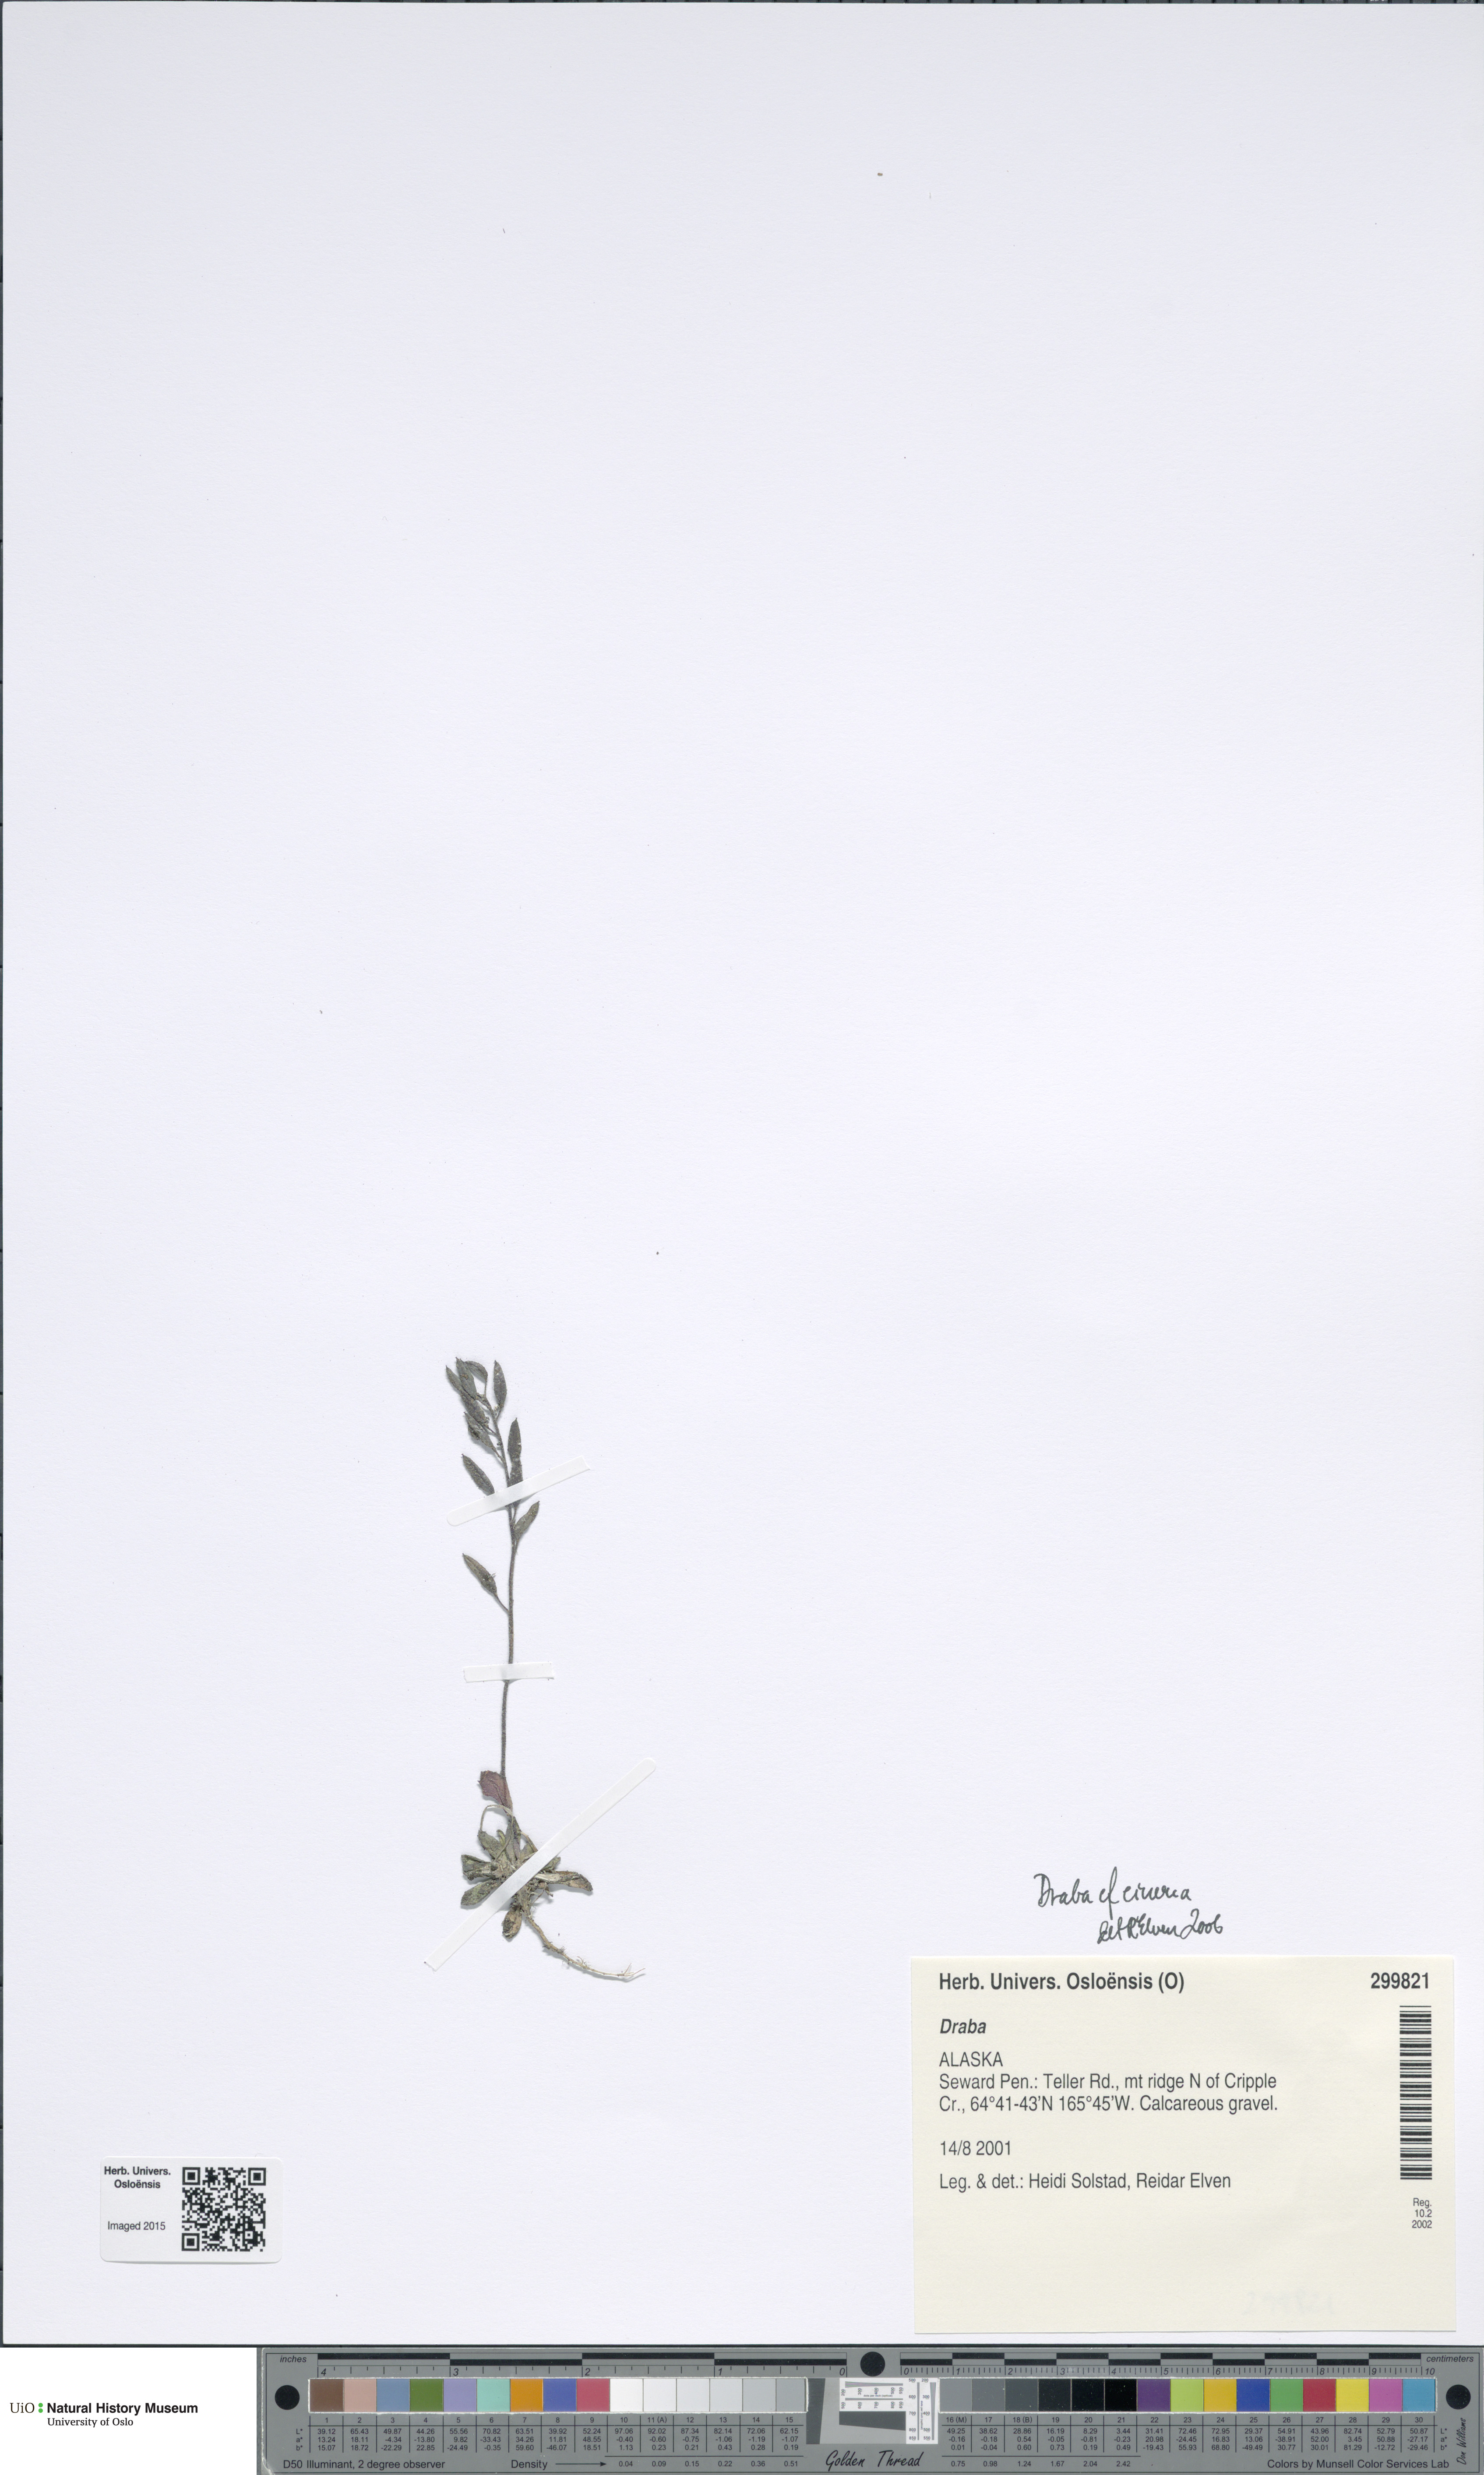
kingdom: Plantae
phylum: Tracheophyta
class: Magnoliopsida
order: Brassicales
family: Brassicaceae
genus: Draba
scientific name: Draba
